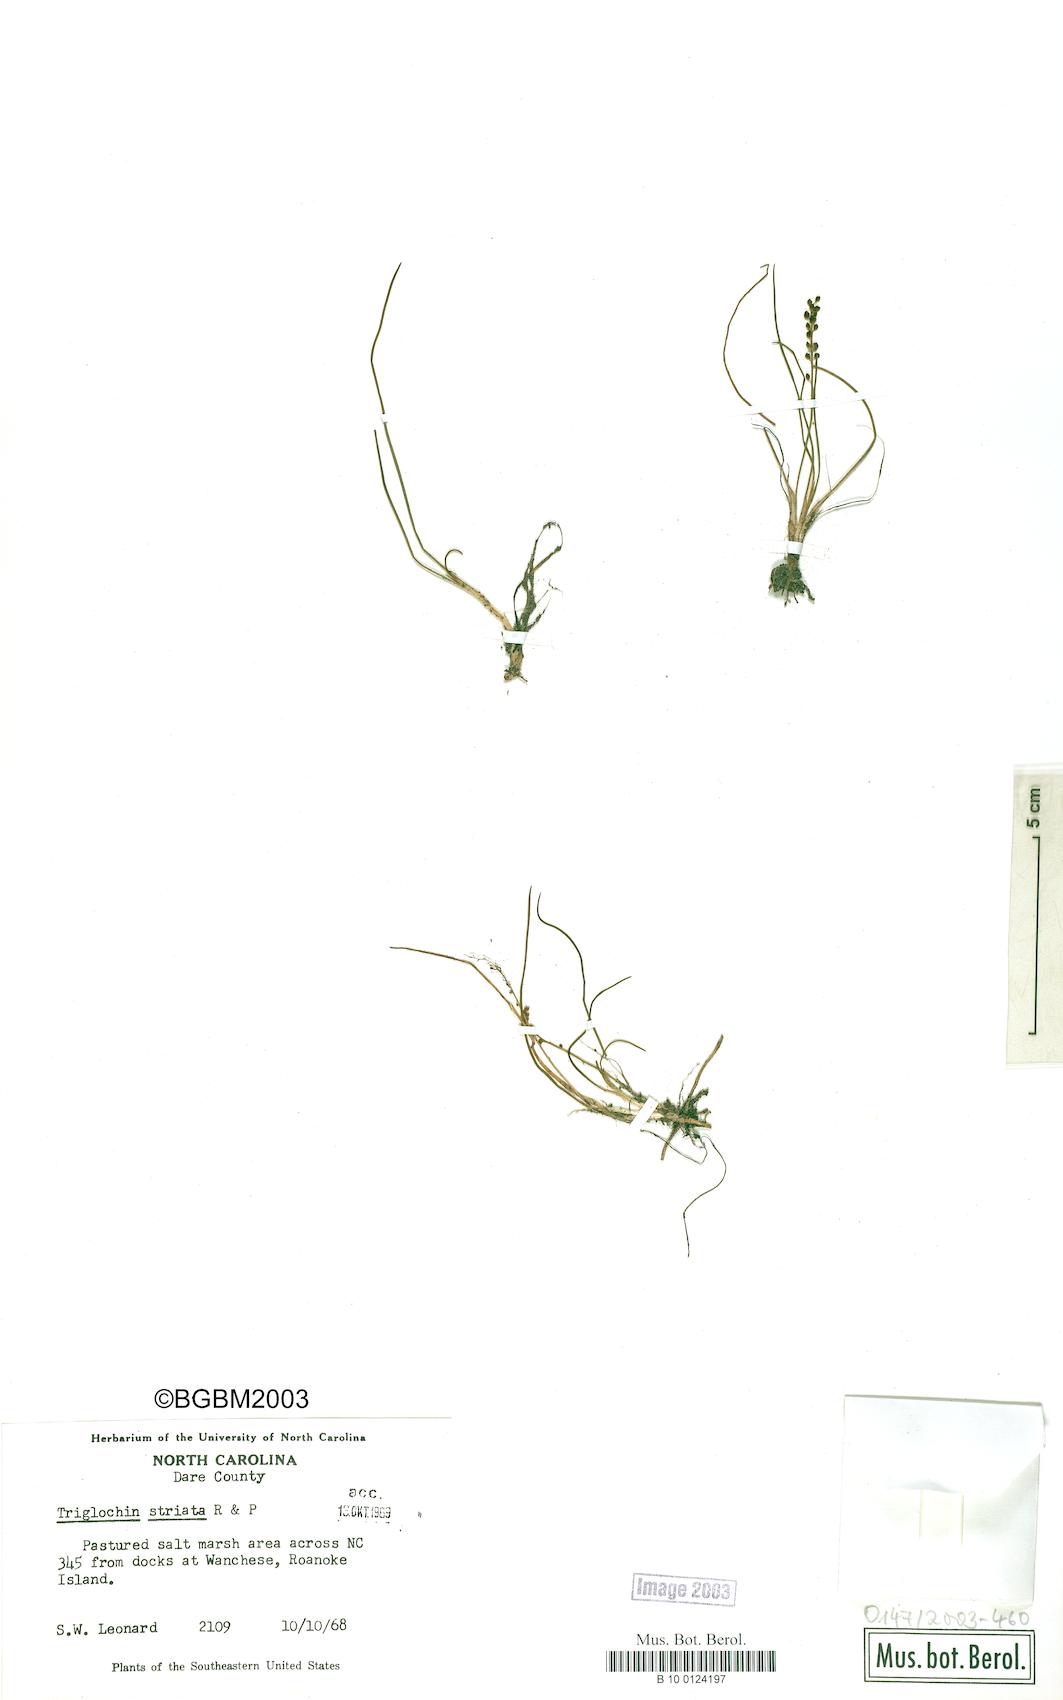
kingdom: Plantae
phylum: Tracheophyta
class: Liliopsida
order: Alismatales
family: Juncaginaceae
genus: Triglochin
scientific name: Triglochin striata
